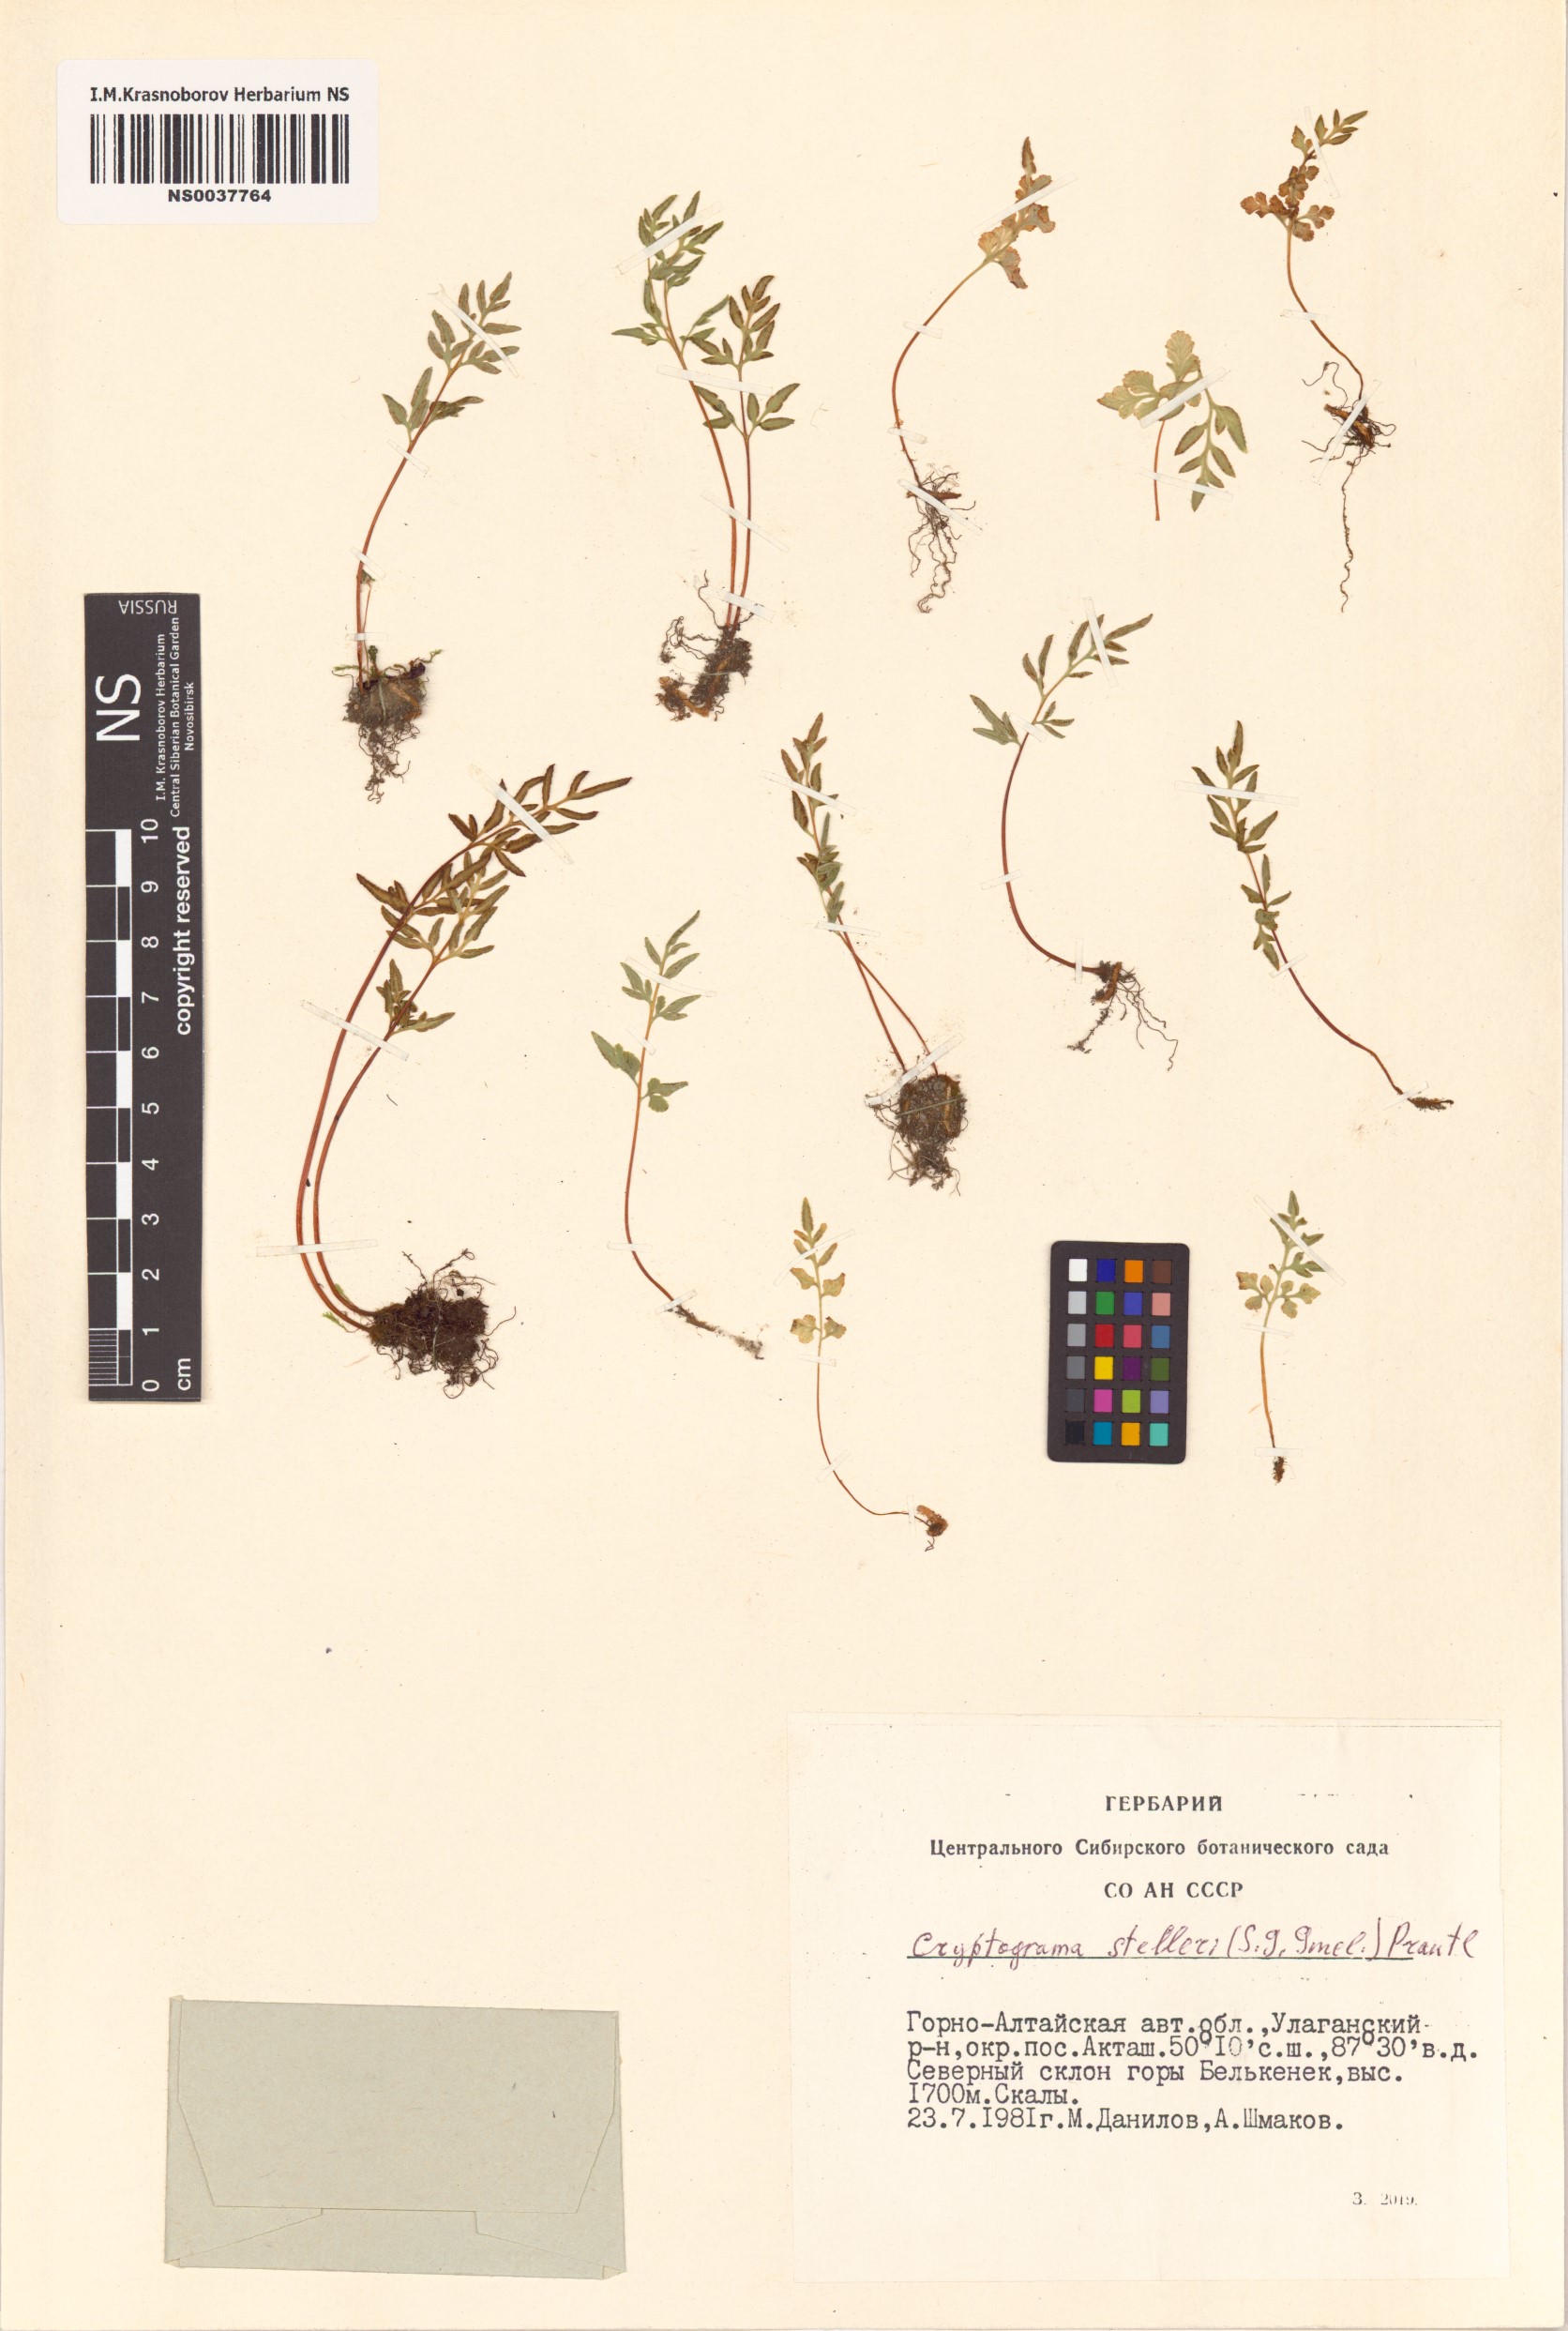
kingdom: Plantae
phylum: Tracheophyta
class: Polypodiopsida
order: Polypodiales
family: Pteridaceae
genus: Cryptogramma
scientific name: Cryptogramma stelleri
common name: Cliff-brake
